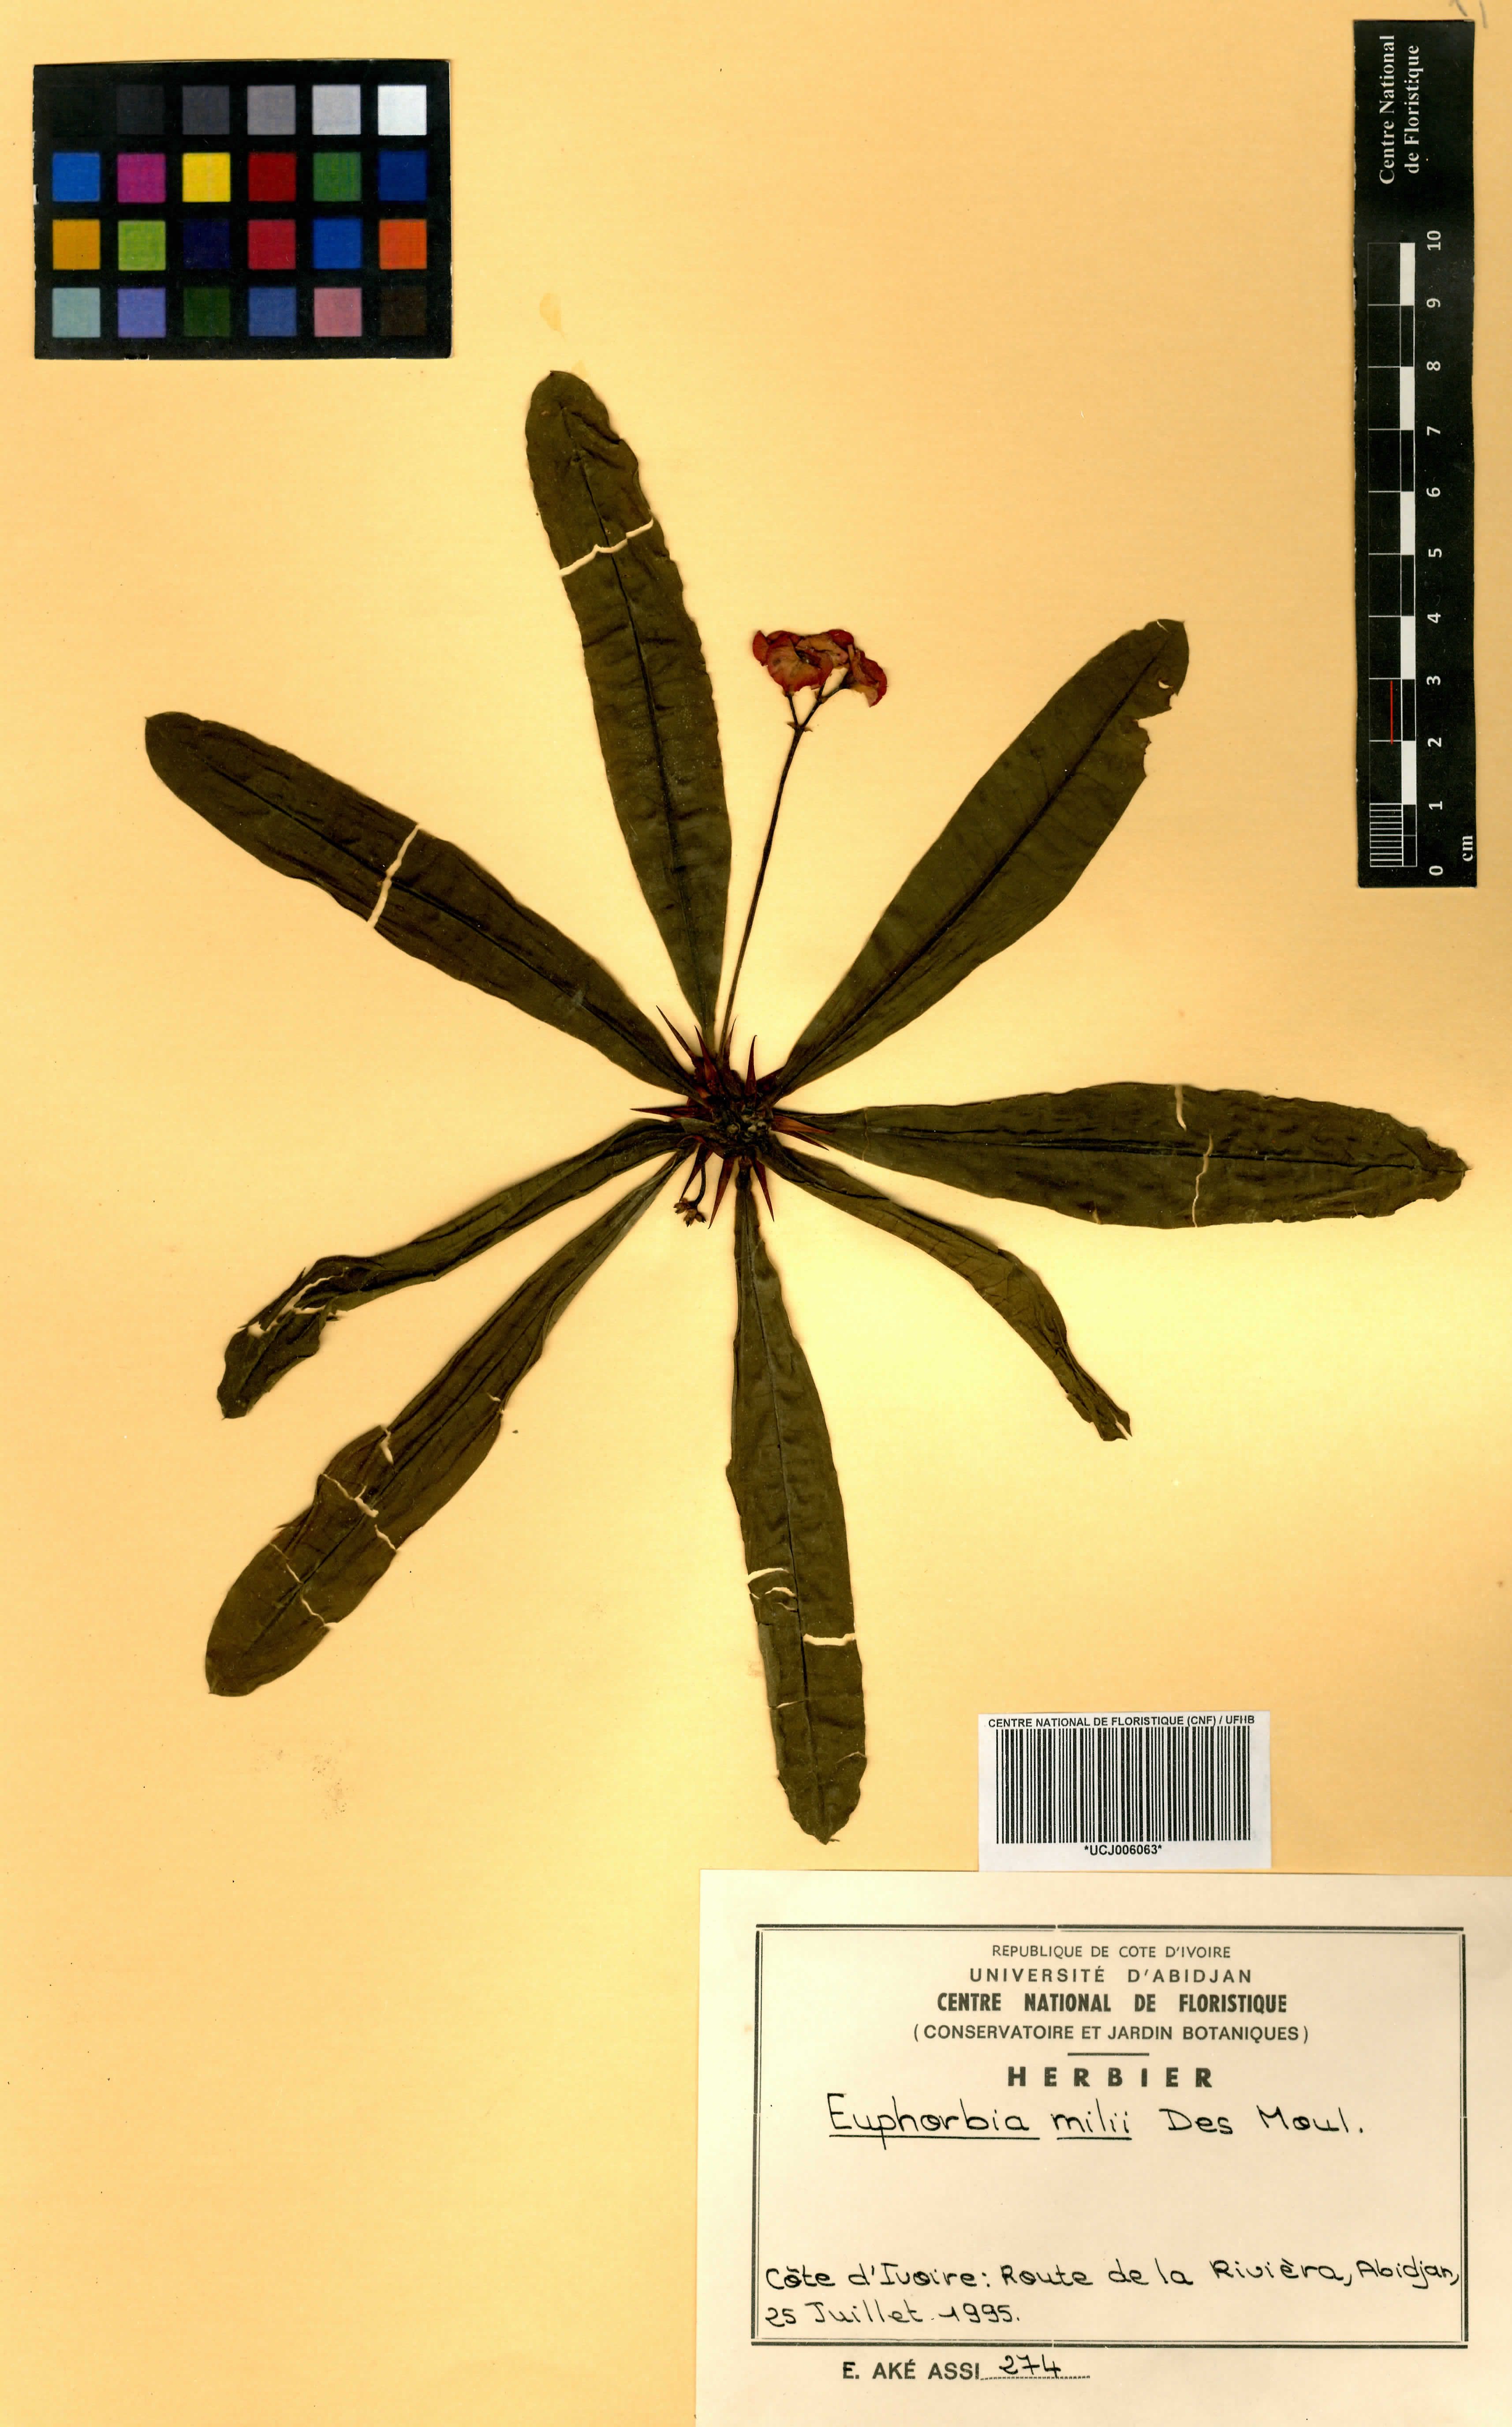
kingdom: Plantae
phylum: Tracheophyta
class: Magnoliopsida
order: Malpighiales
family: Euphorbiaceae
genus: Euphorbia
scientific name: Euphorbia milii
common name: Christplant
